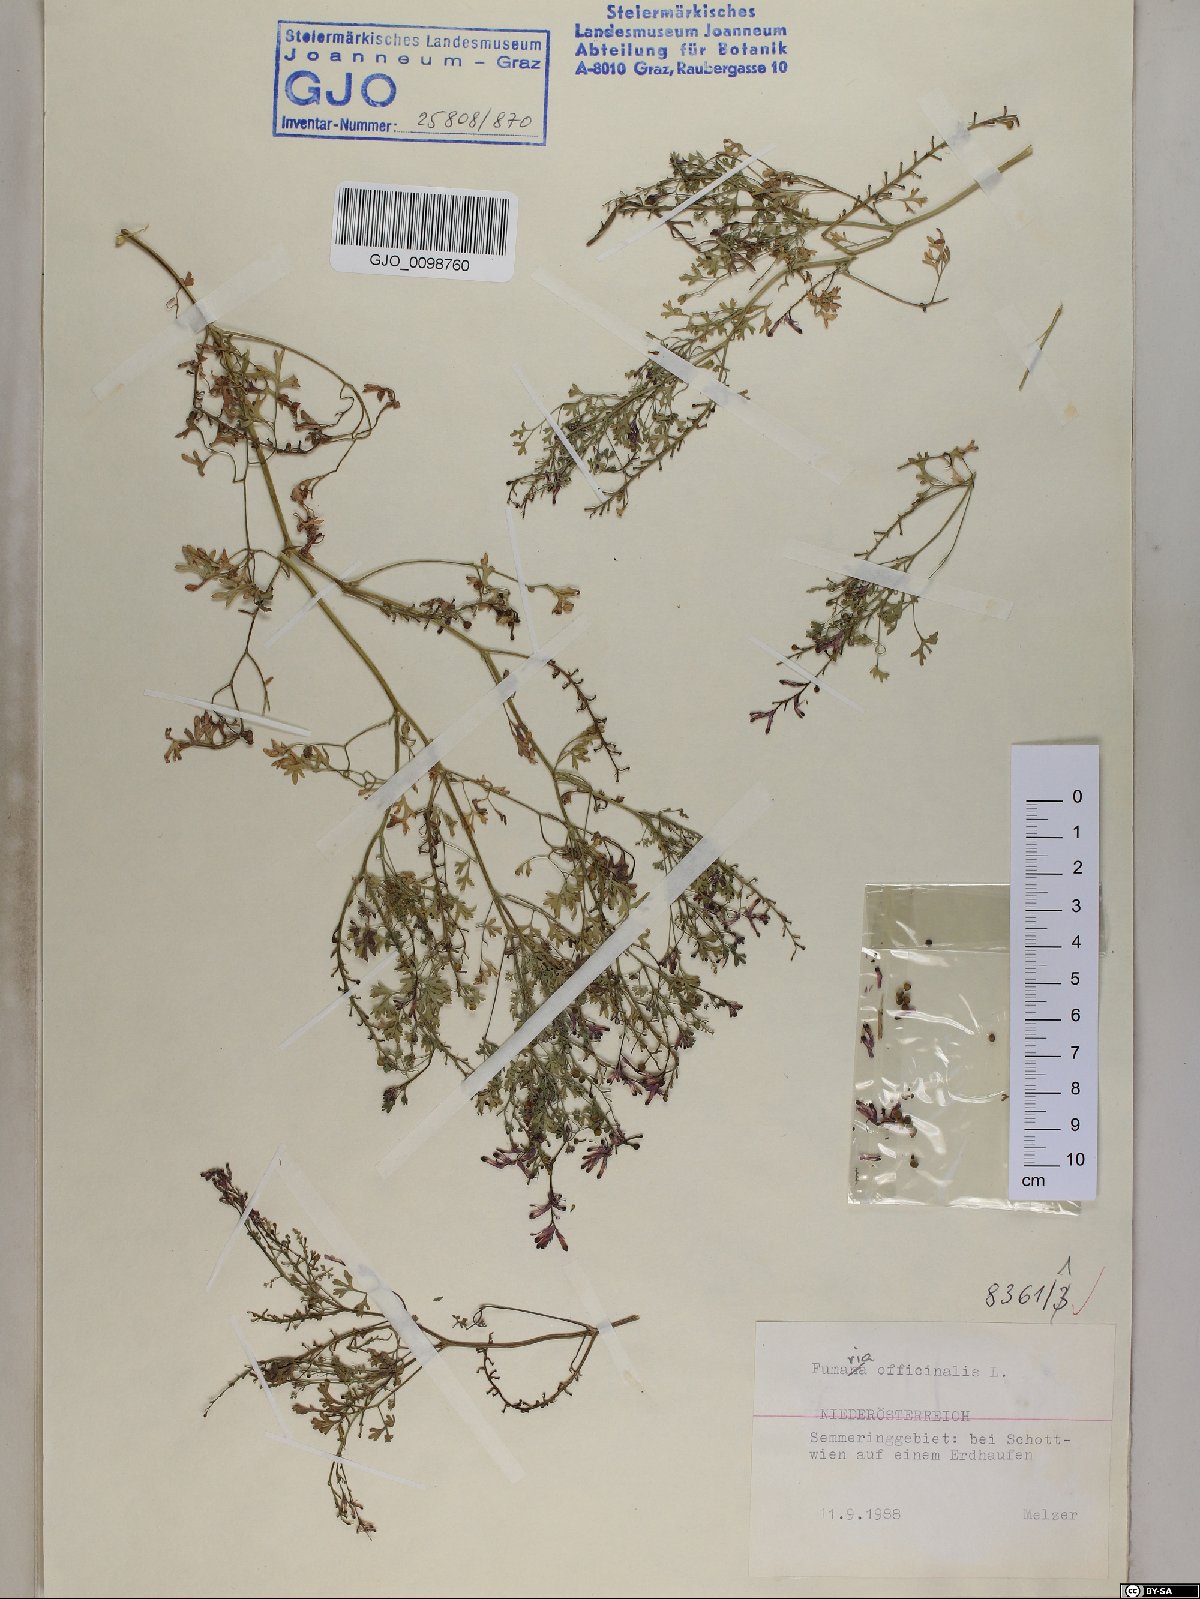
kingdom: Plantae
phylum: Tracheophyta
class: Magnoliopsida
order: Ranunculales
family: Papaveraceae
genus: Fumaria
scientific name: Fumaria officinalis
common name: Common fumitory
